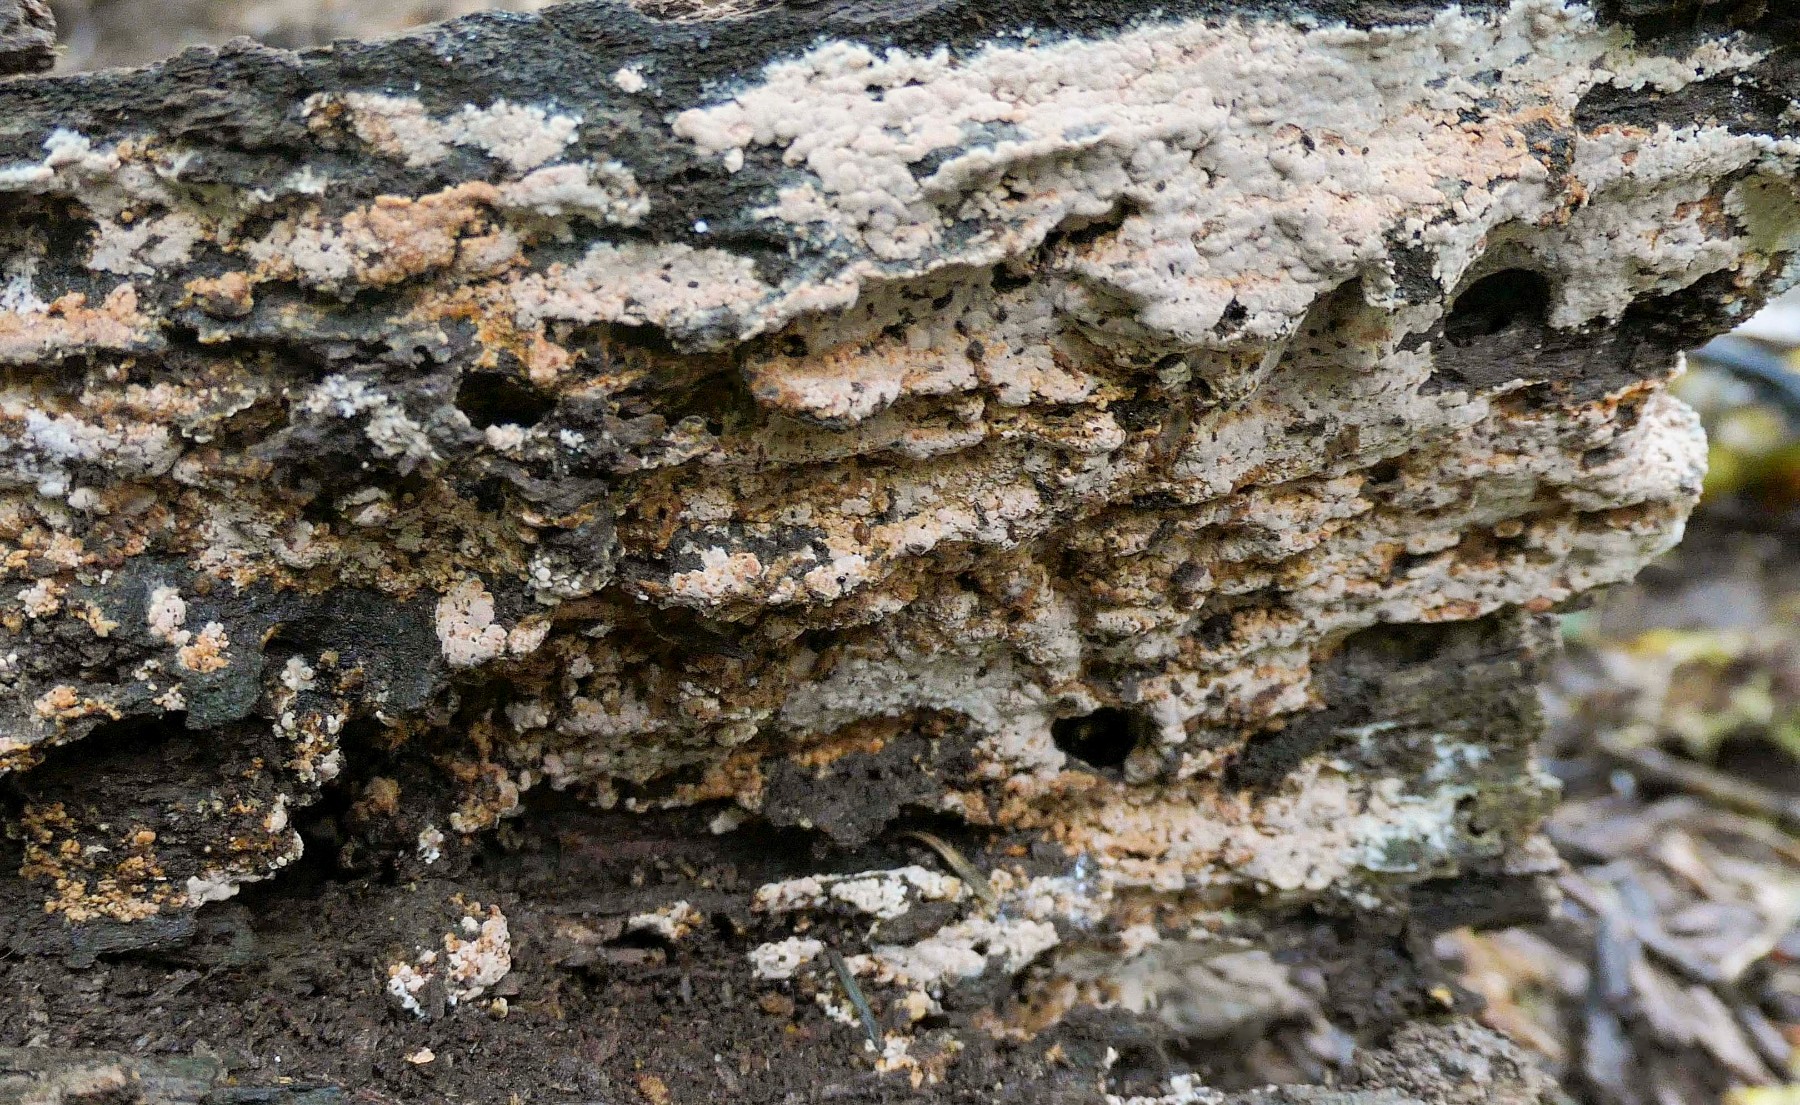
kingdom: Fungi
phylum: Basidiomycota
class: Agaricomycetes
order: Russulales
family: Peniophoraceae
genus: Gloiothele
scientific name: Gloiothele lactescens
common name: bitter olieskind
